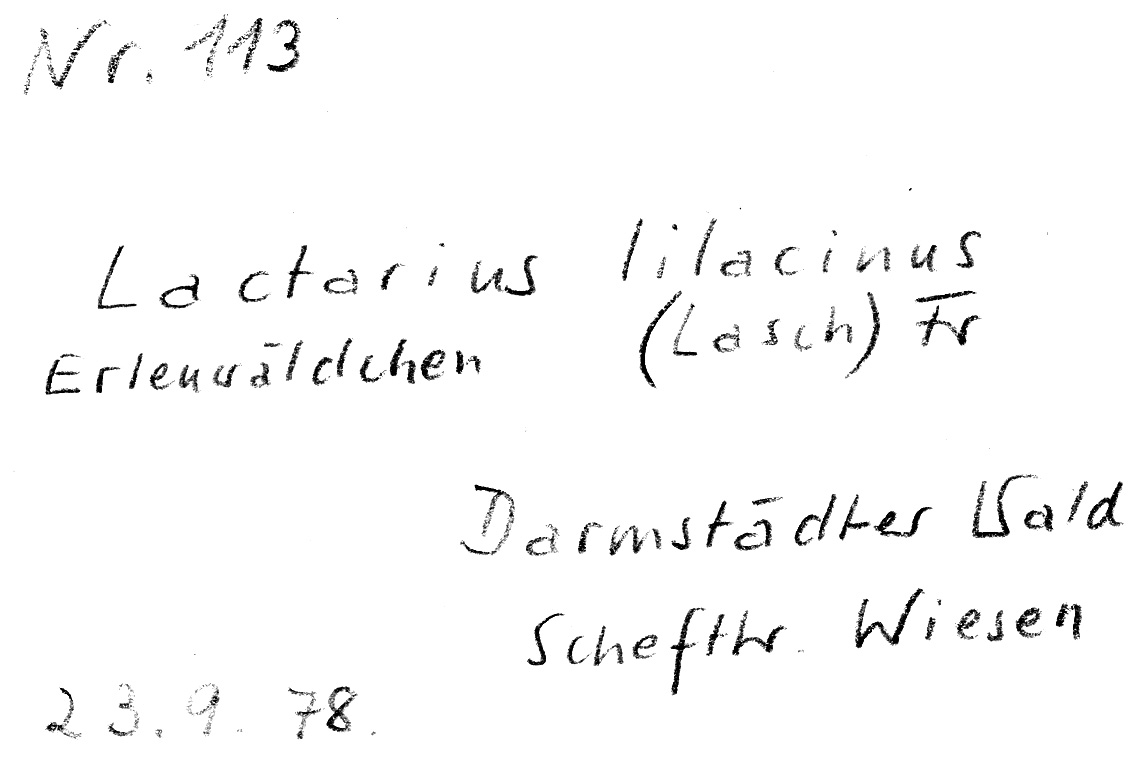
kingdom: Fungi
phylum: Basidiomycota
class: Agaricomycetes
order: Russulales
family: Russulaceae
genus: Lactarius
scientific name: Lactarius lilacinus
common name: Lilac milkcap
